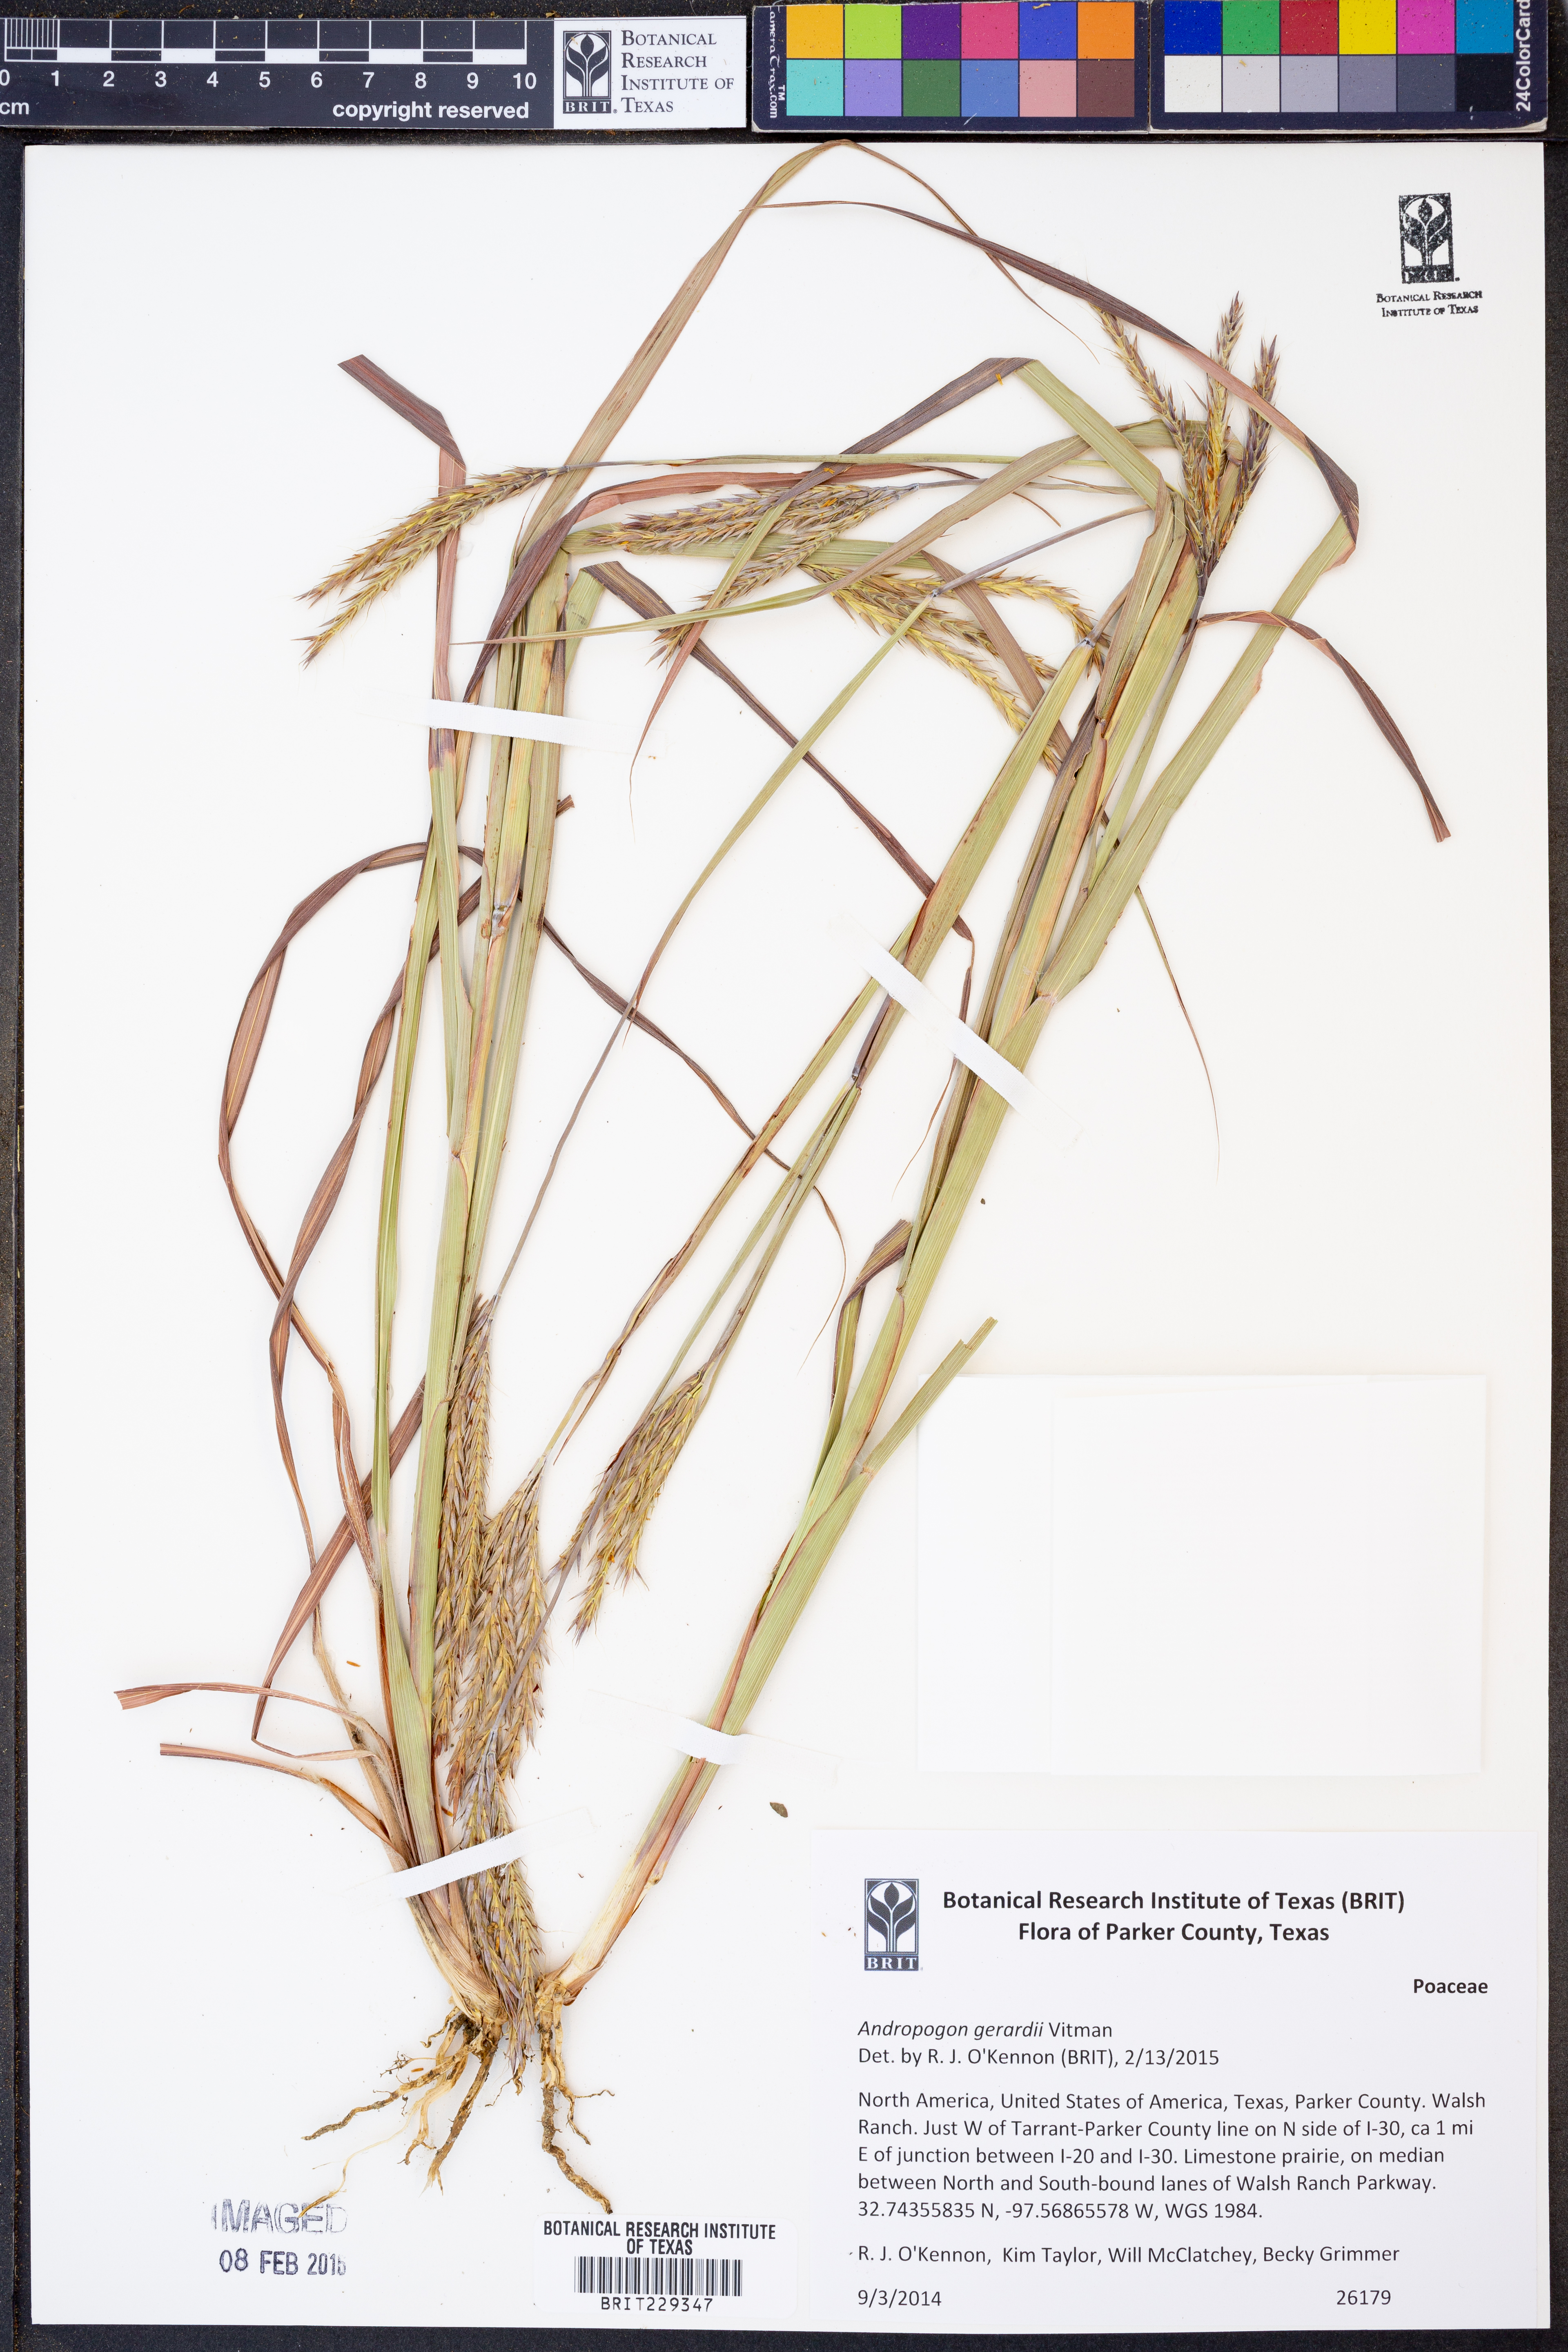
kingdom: Plantae
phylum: Tracheophyta
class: Liliopsida
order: Poales
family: Poaceae
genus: Andropogon
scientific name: Andropogon gerardi
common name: Big bluestem
